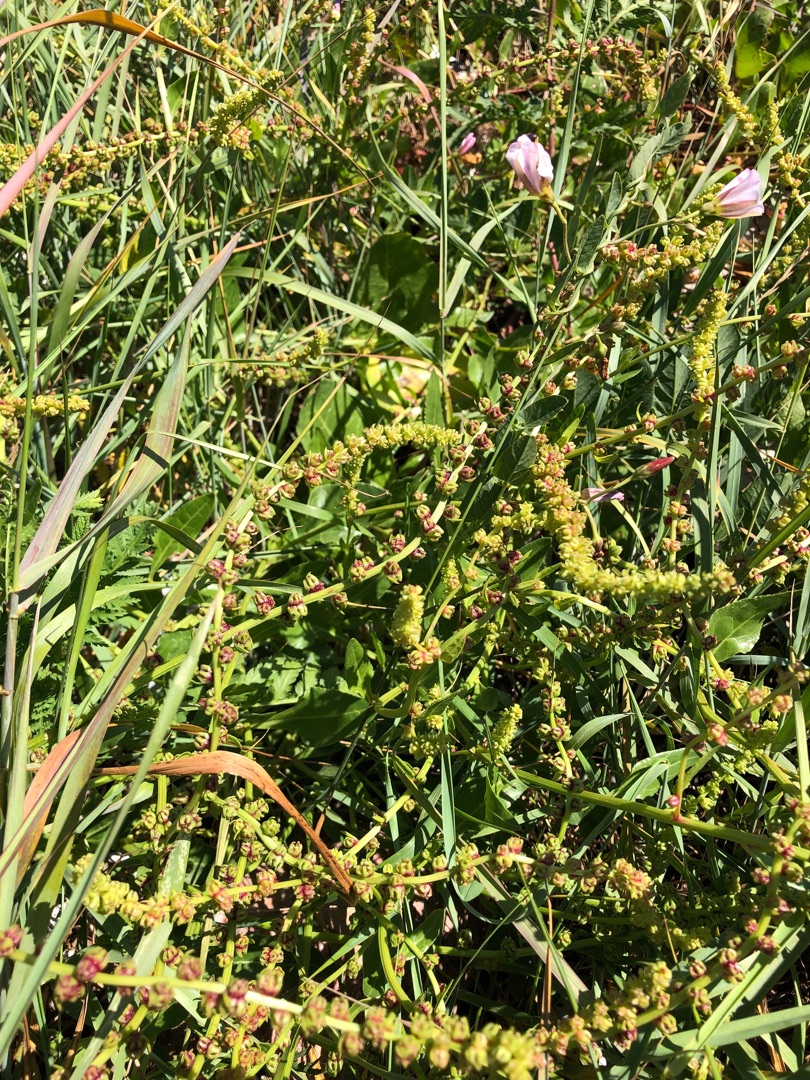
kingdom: Plantae
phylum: Tracheophyta
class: Magnoliopsida
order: Caryophyllales
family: Amaranthaceae
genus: Beta
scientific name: Beta maritima
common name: Strand-bede
